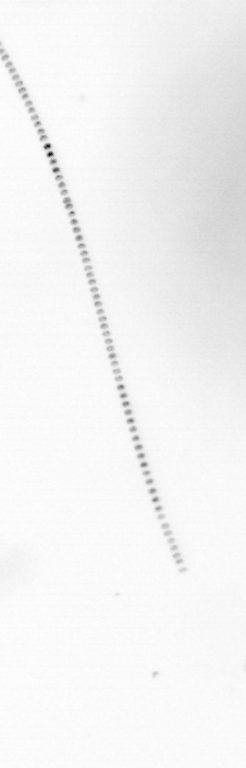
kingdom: Chromista
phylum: Ochrophyta
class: Bacillariophyceae
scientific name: Bacillariophyceae
